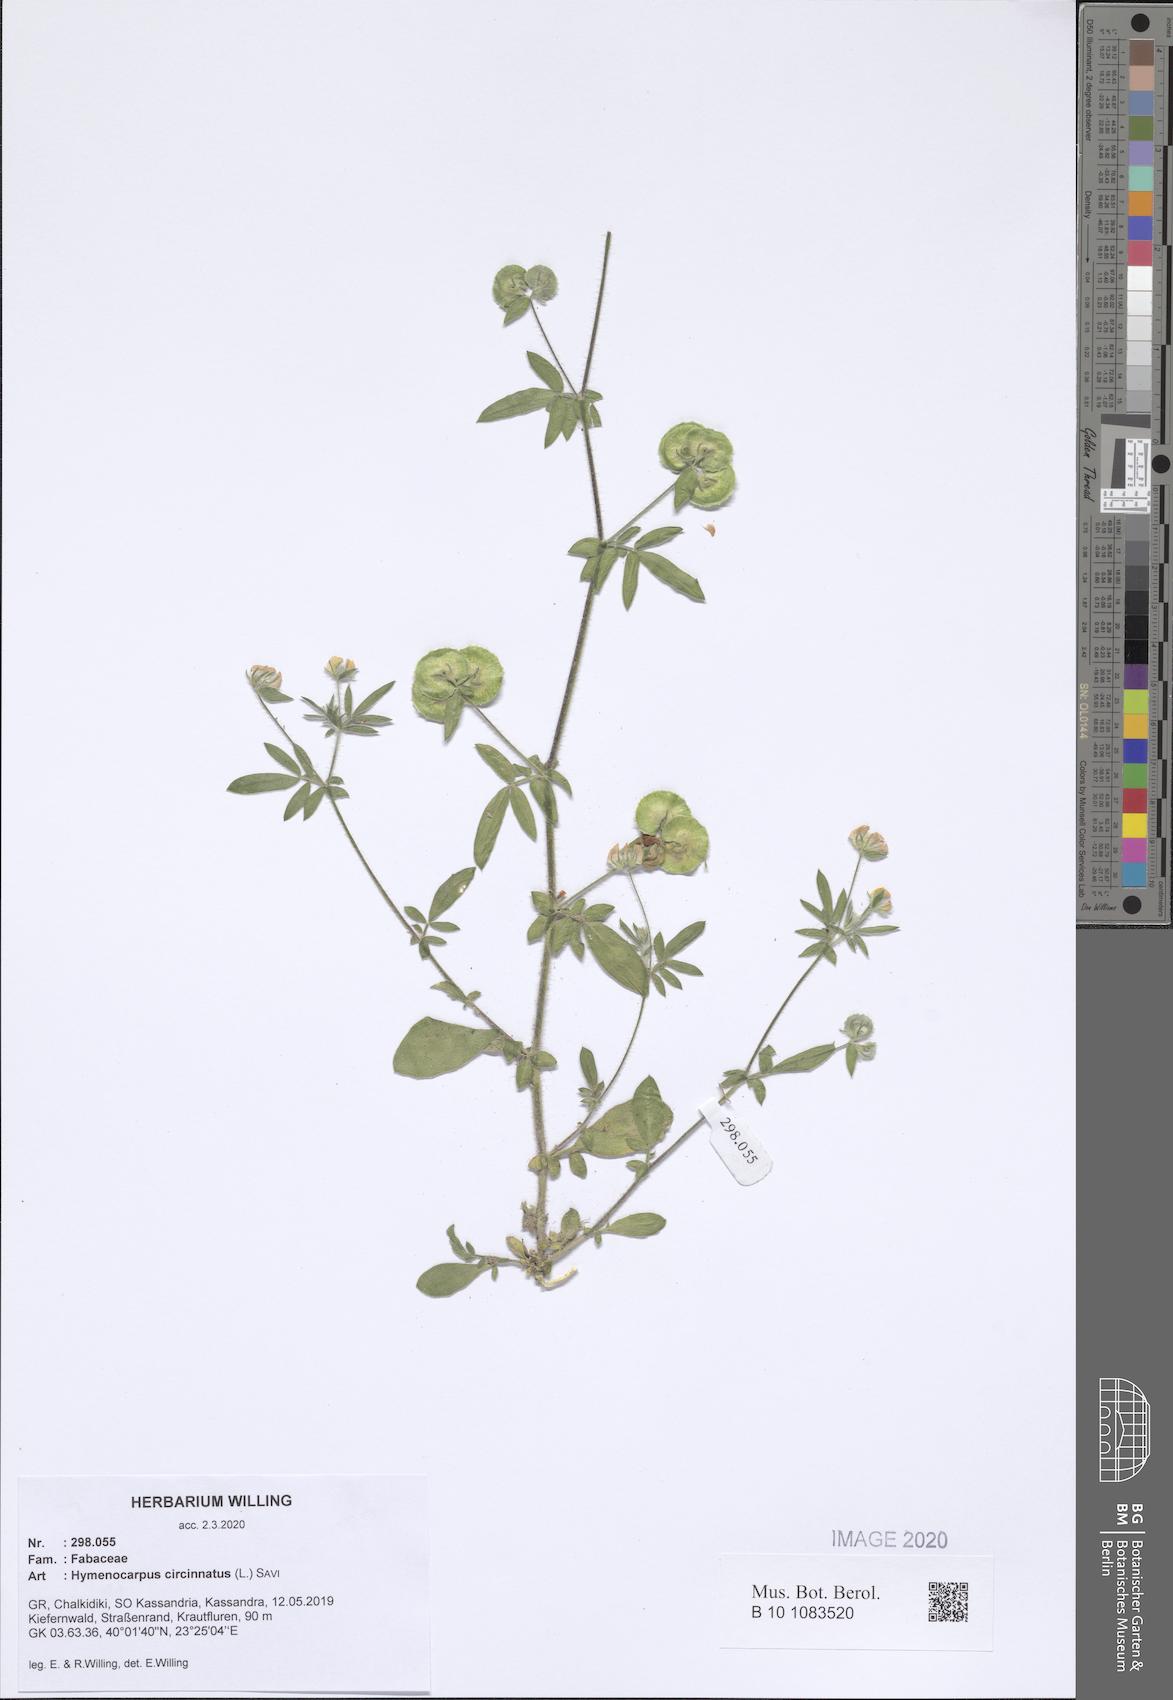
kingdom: Plantae
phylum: Tracheophyta
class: Magnoliopsida
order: Fabales
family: Fabaceae
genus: Anthyllis
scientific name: Anthyllis circinnata
